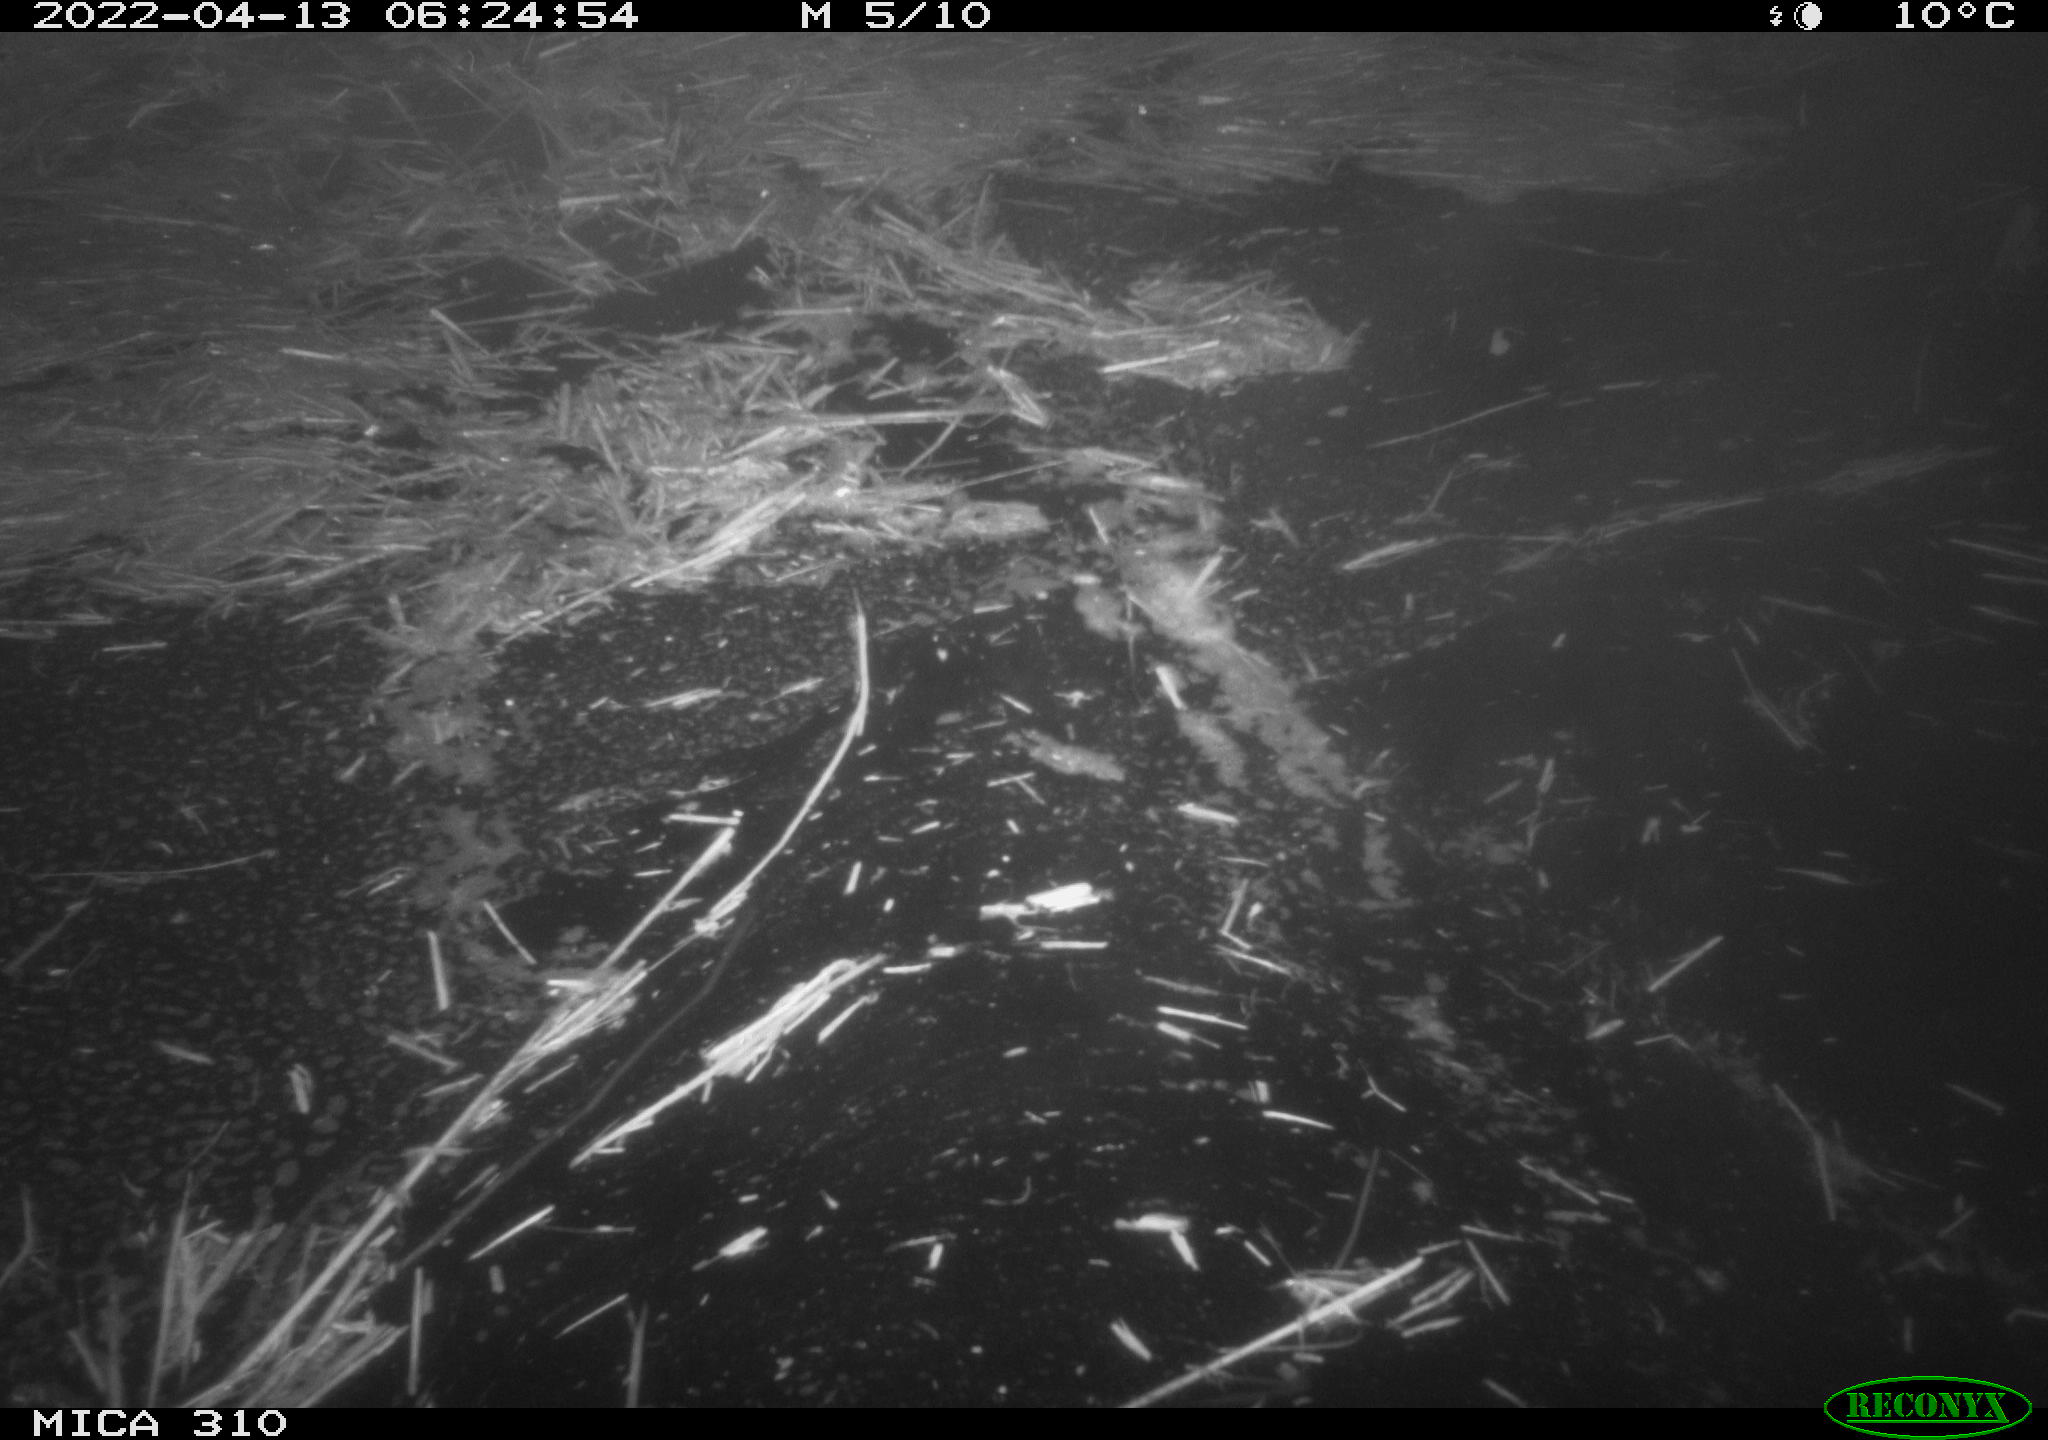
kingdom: Animalia
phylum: Chordata
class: Aves
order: Anseriformes
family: Anatidae
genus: Anas
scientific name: Anas platyrhynchos
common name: Mallard
